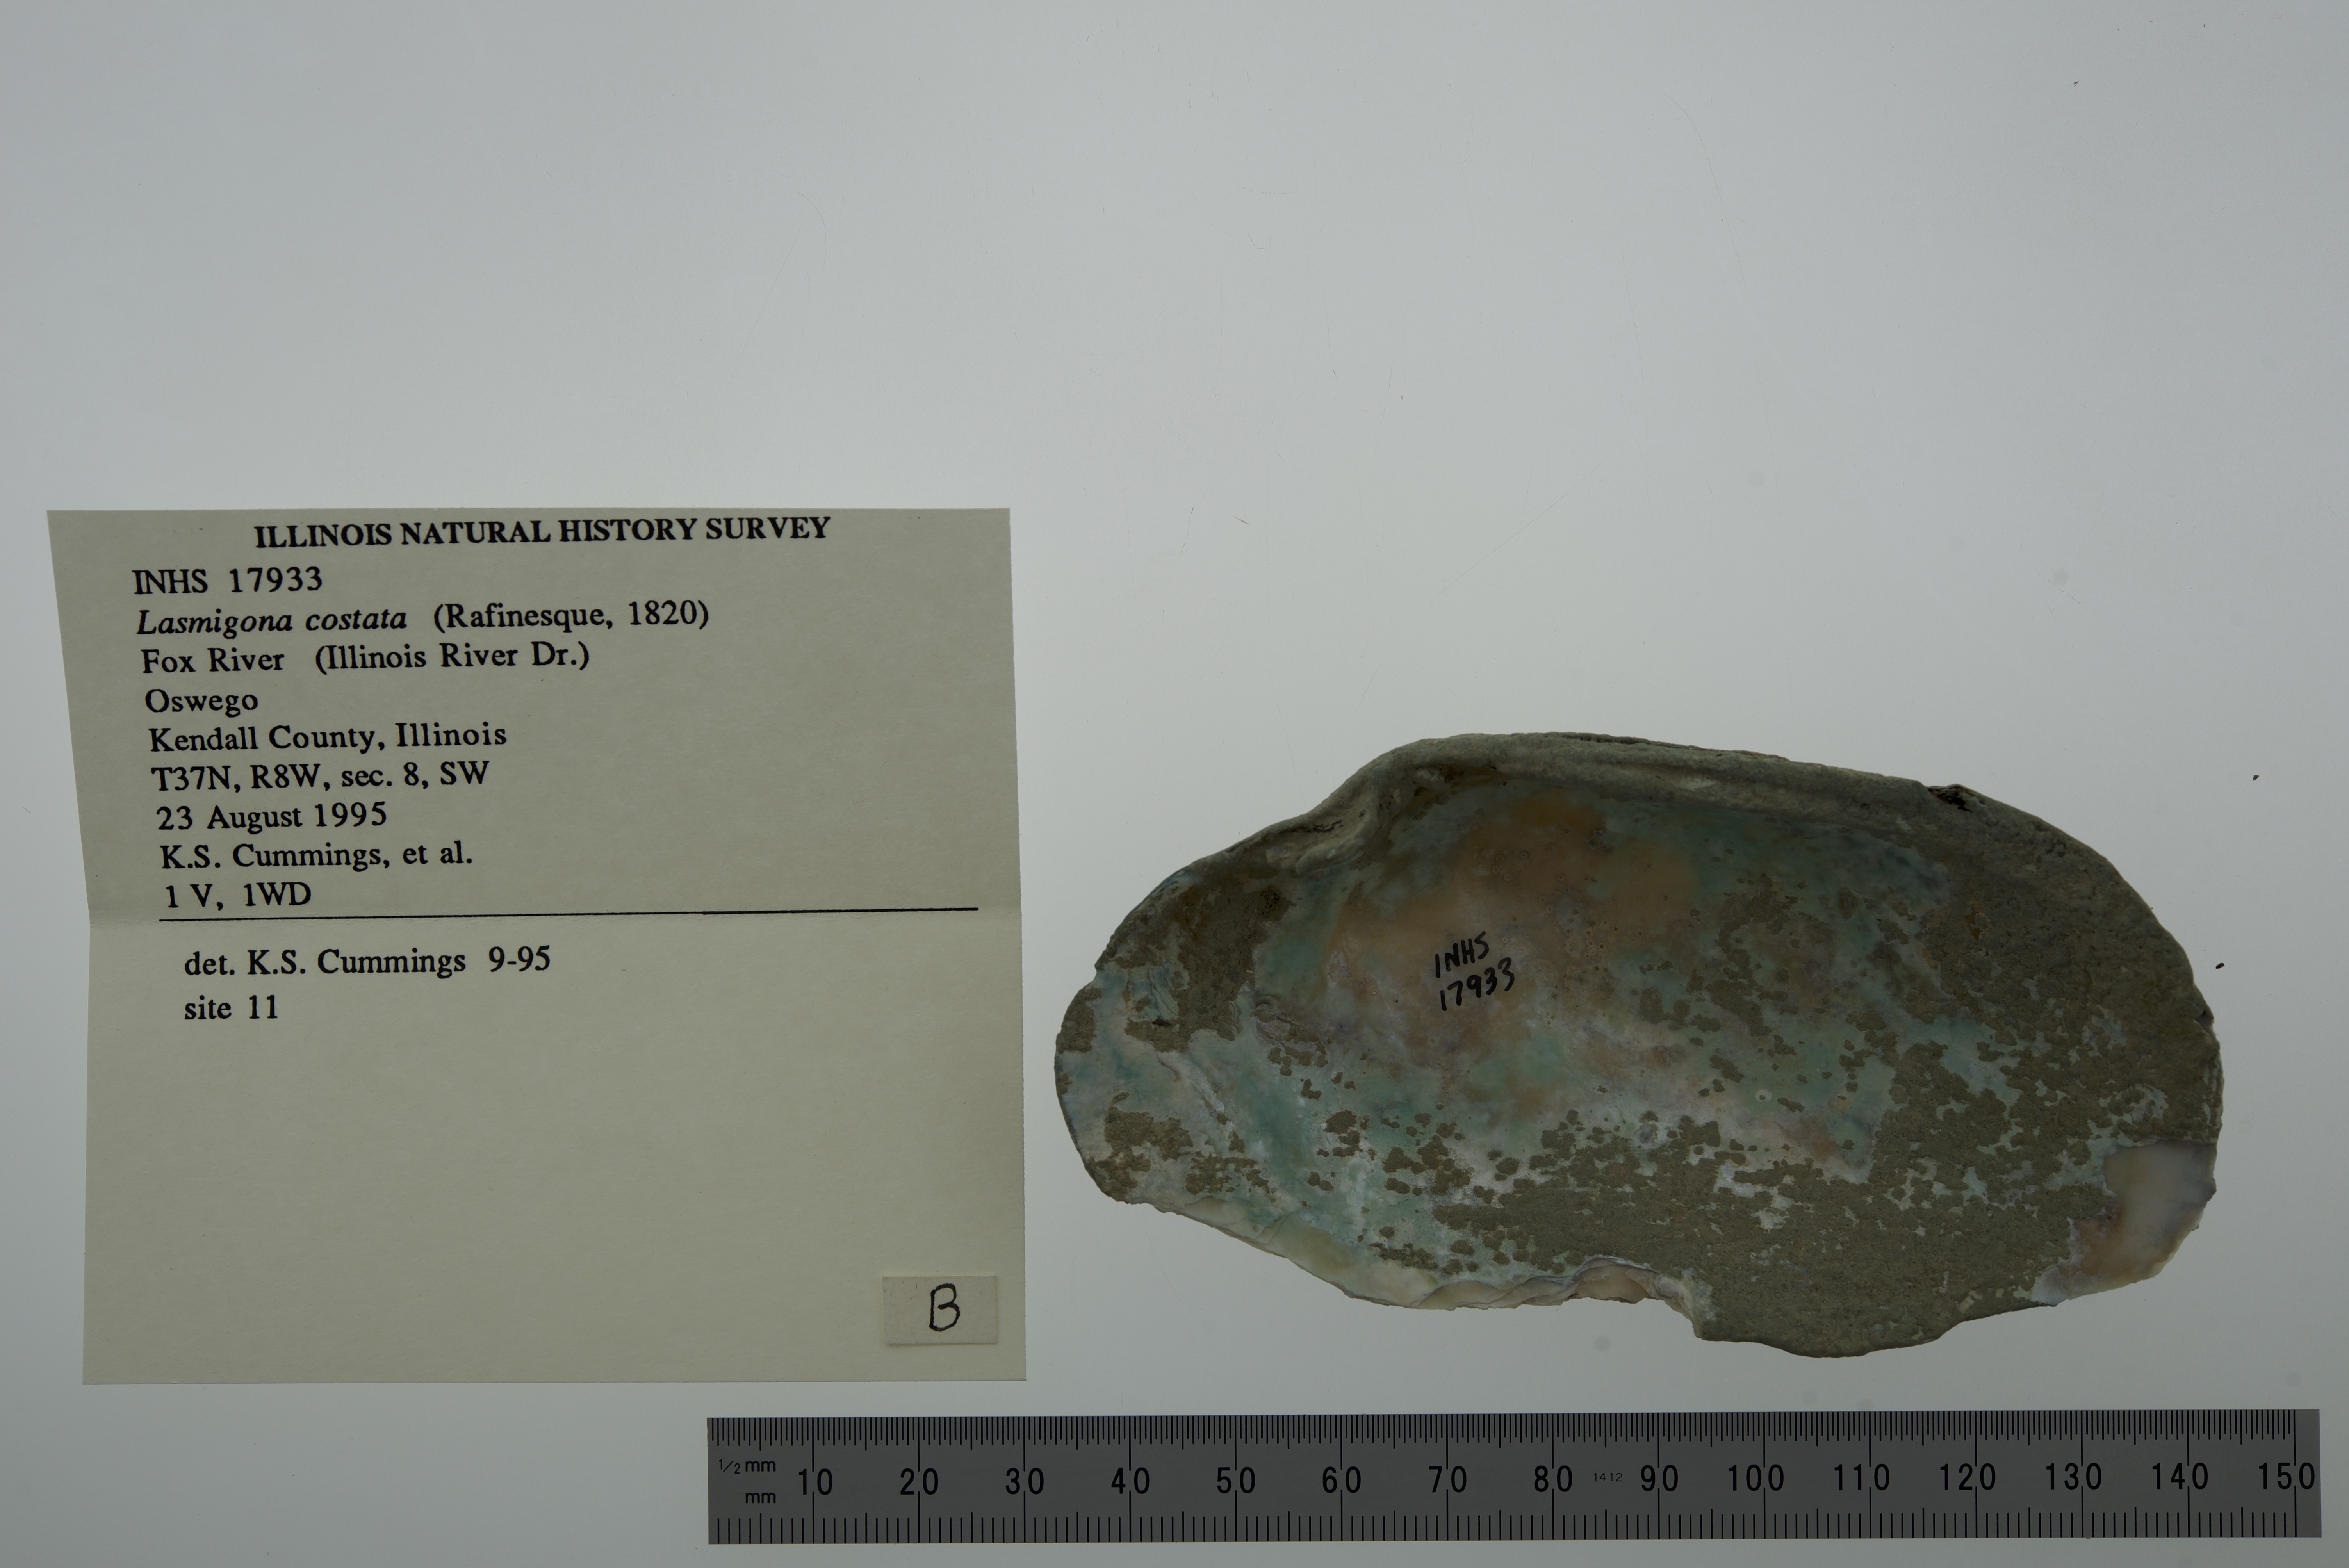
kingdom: Animalia
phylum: Mollusca
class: Bivalvia
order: Unionida
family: Unionidae
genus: Lasmigona
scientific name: Lasmigona costata
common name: Flutedshell
